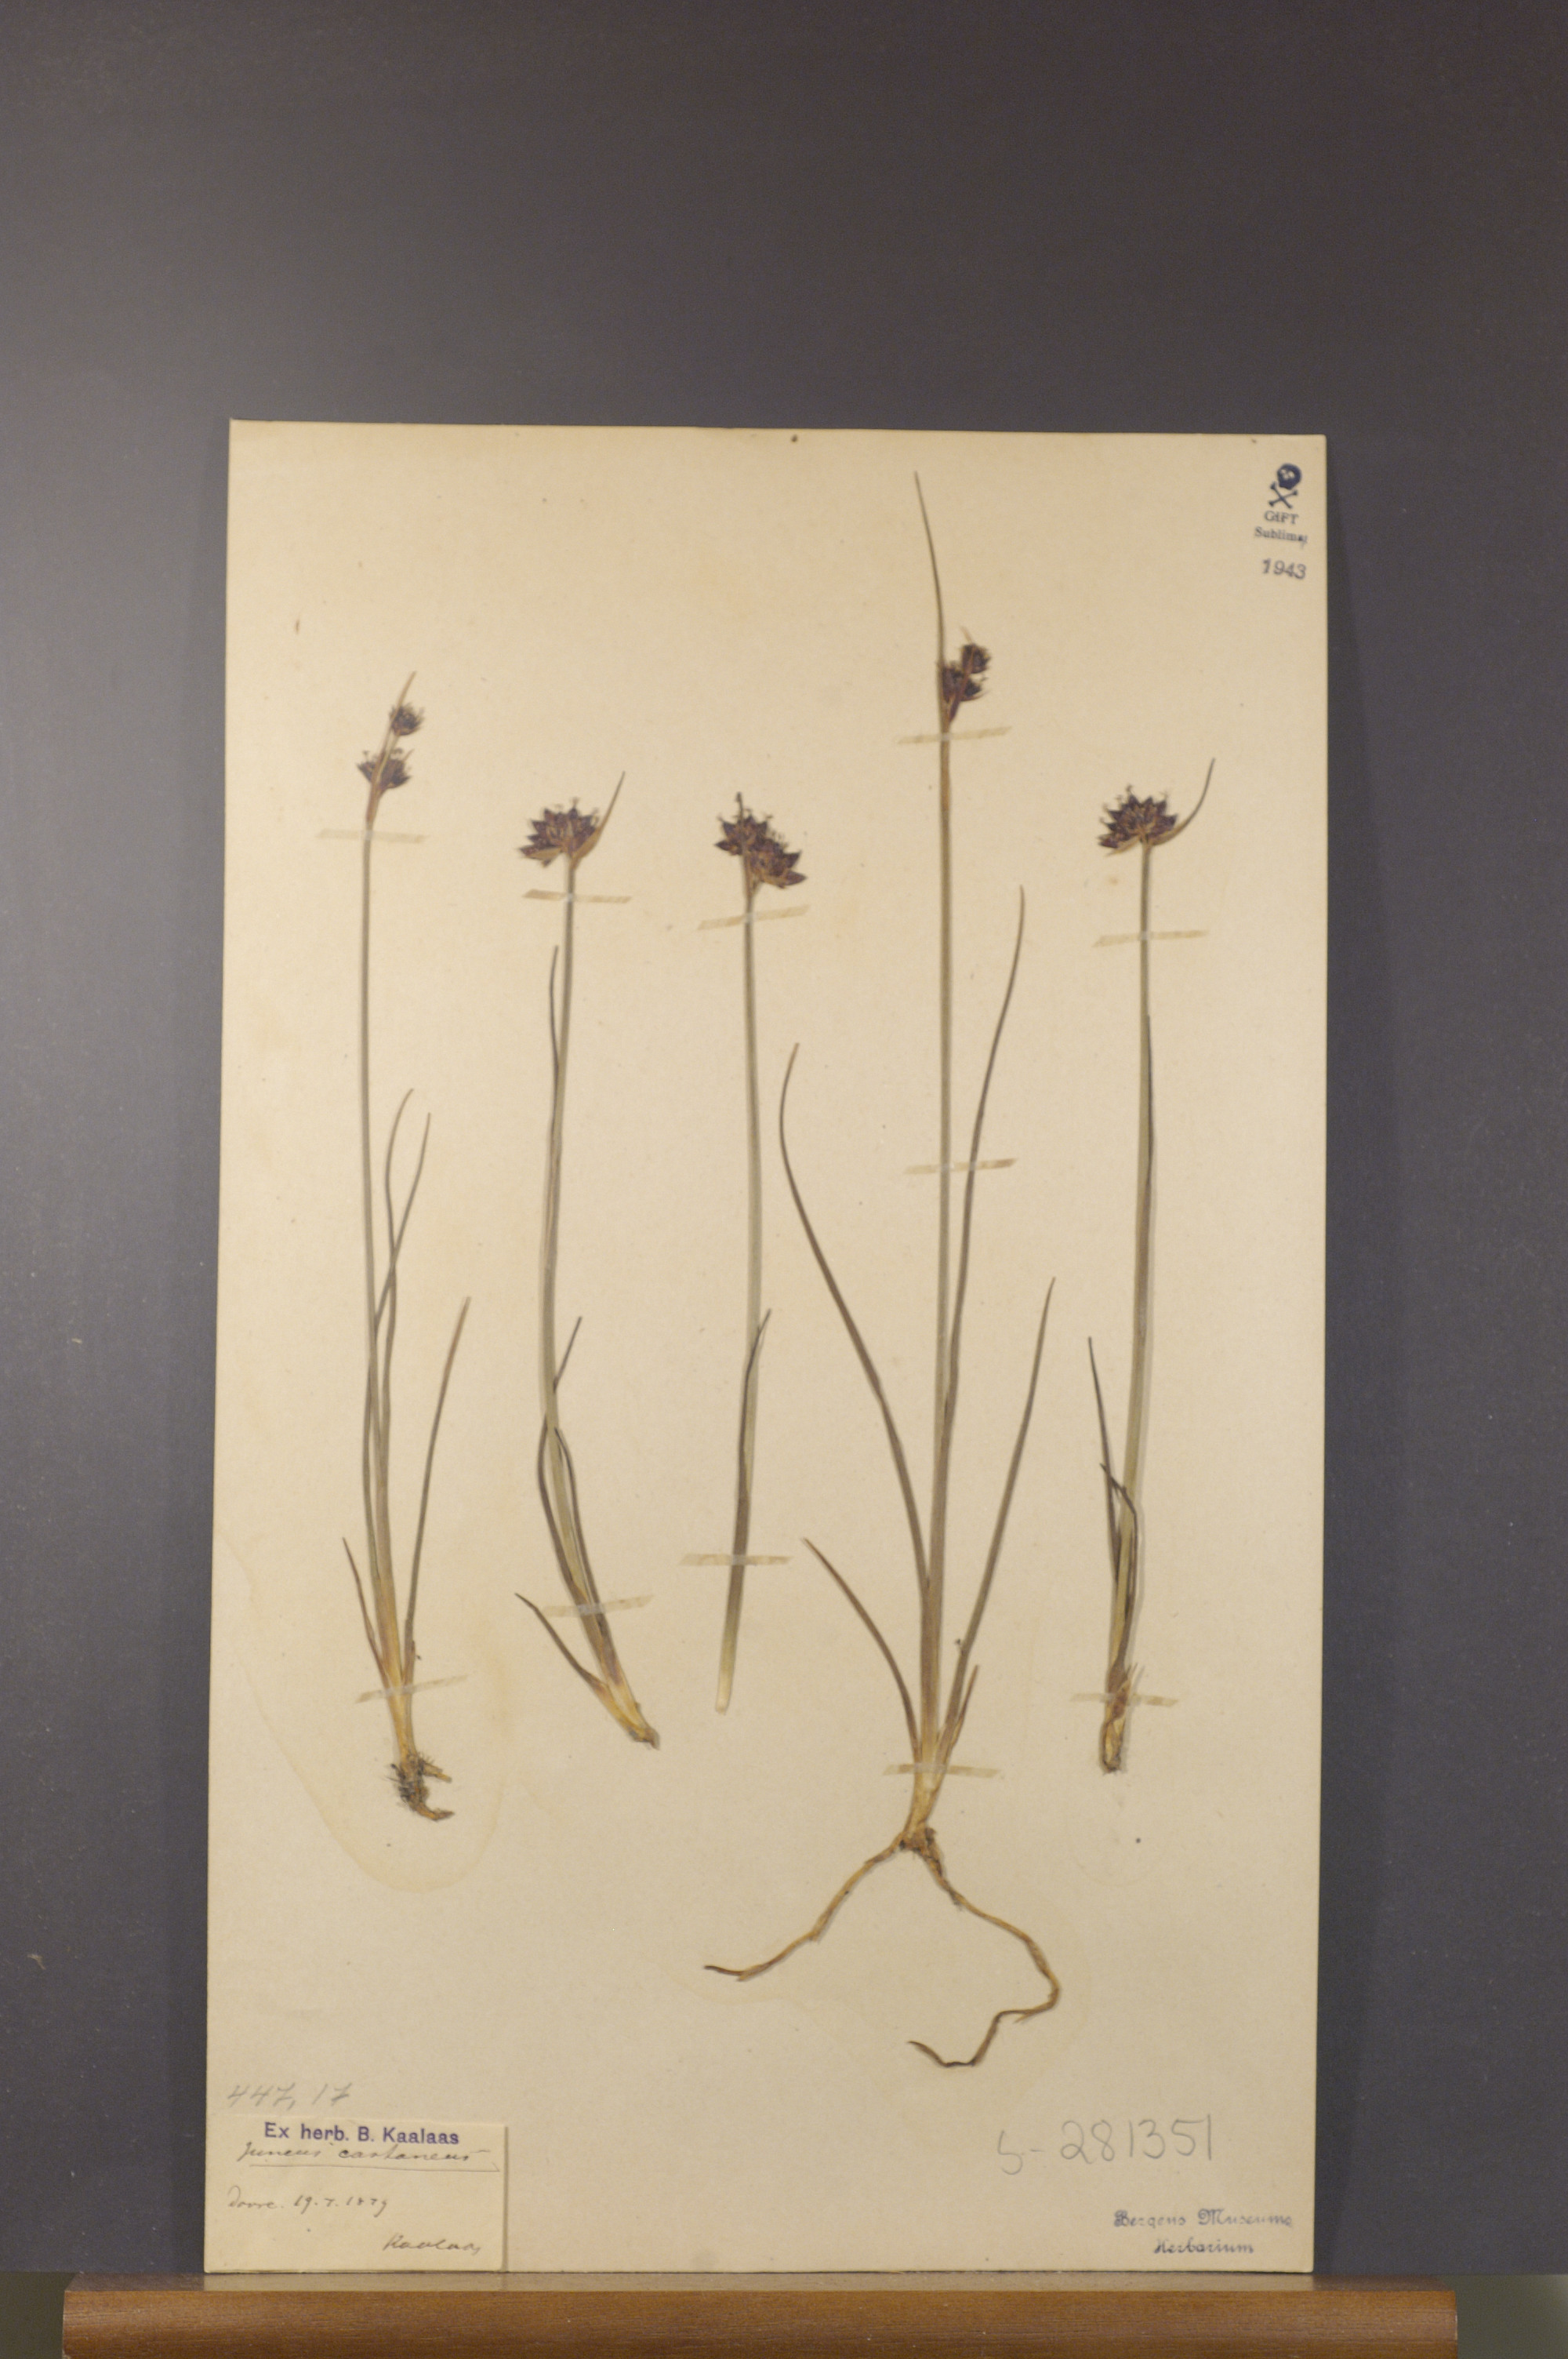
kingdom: Plantae
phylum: Tracheophyta
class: Liliopsida
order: Poales
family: Juncaceae
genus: Juncus
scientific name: Juncus castaneus
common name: Chestnut rush
